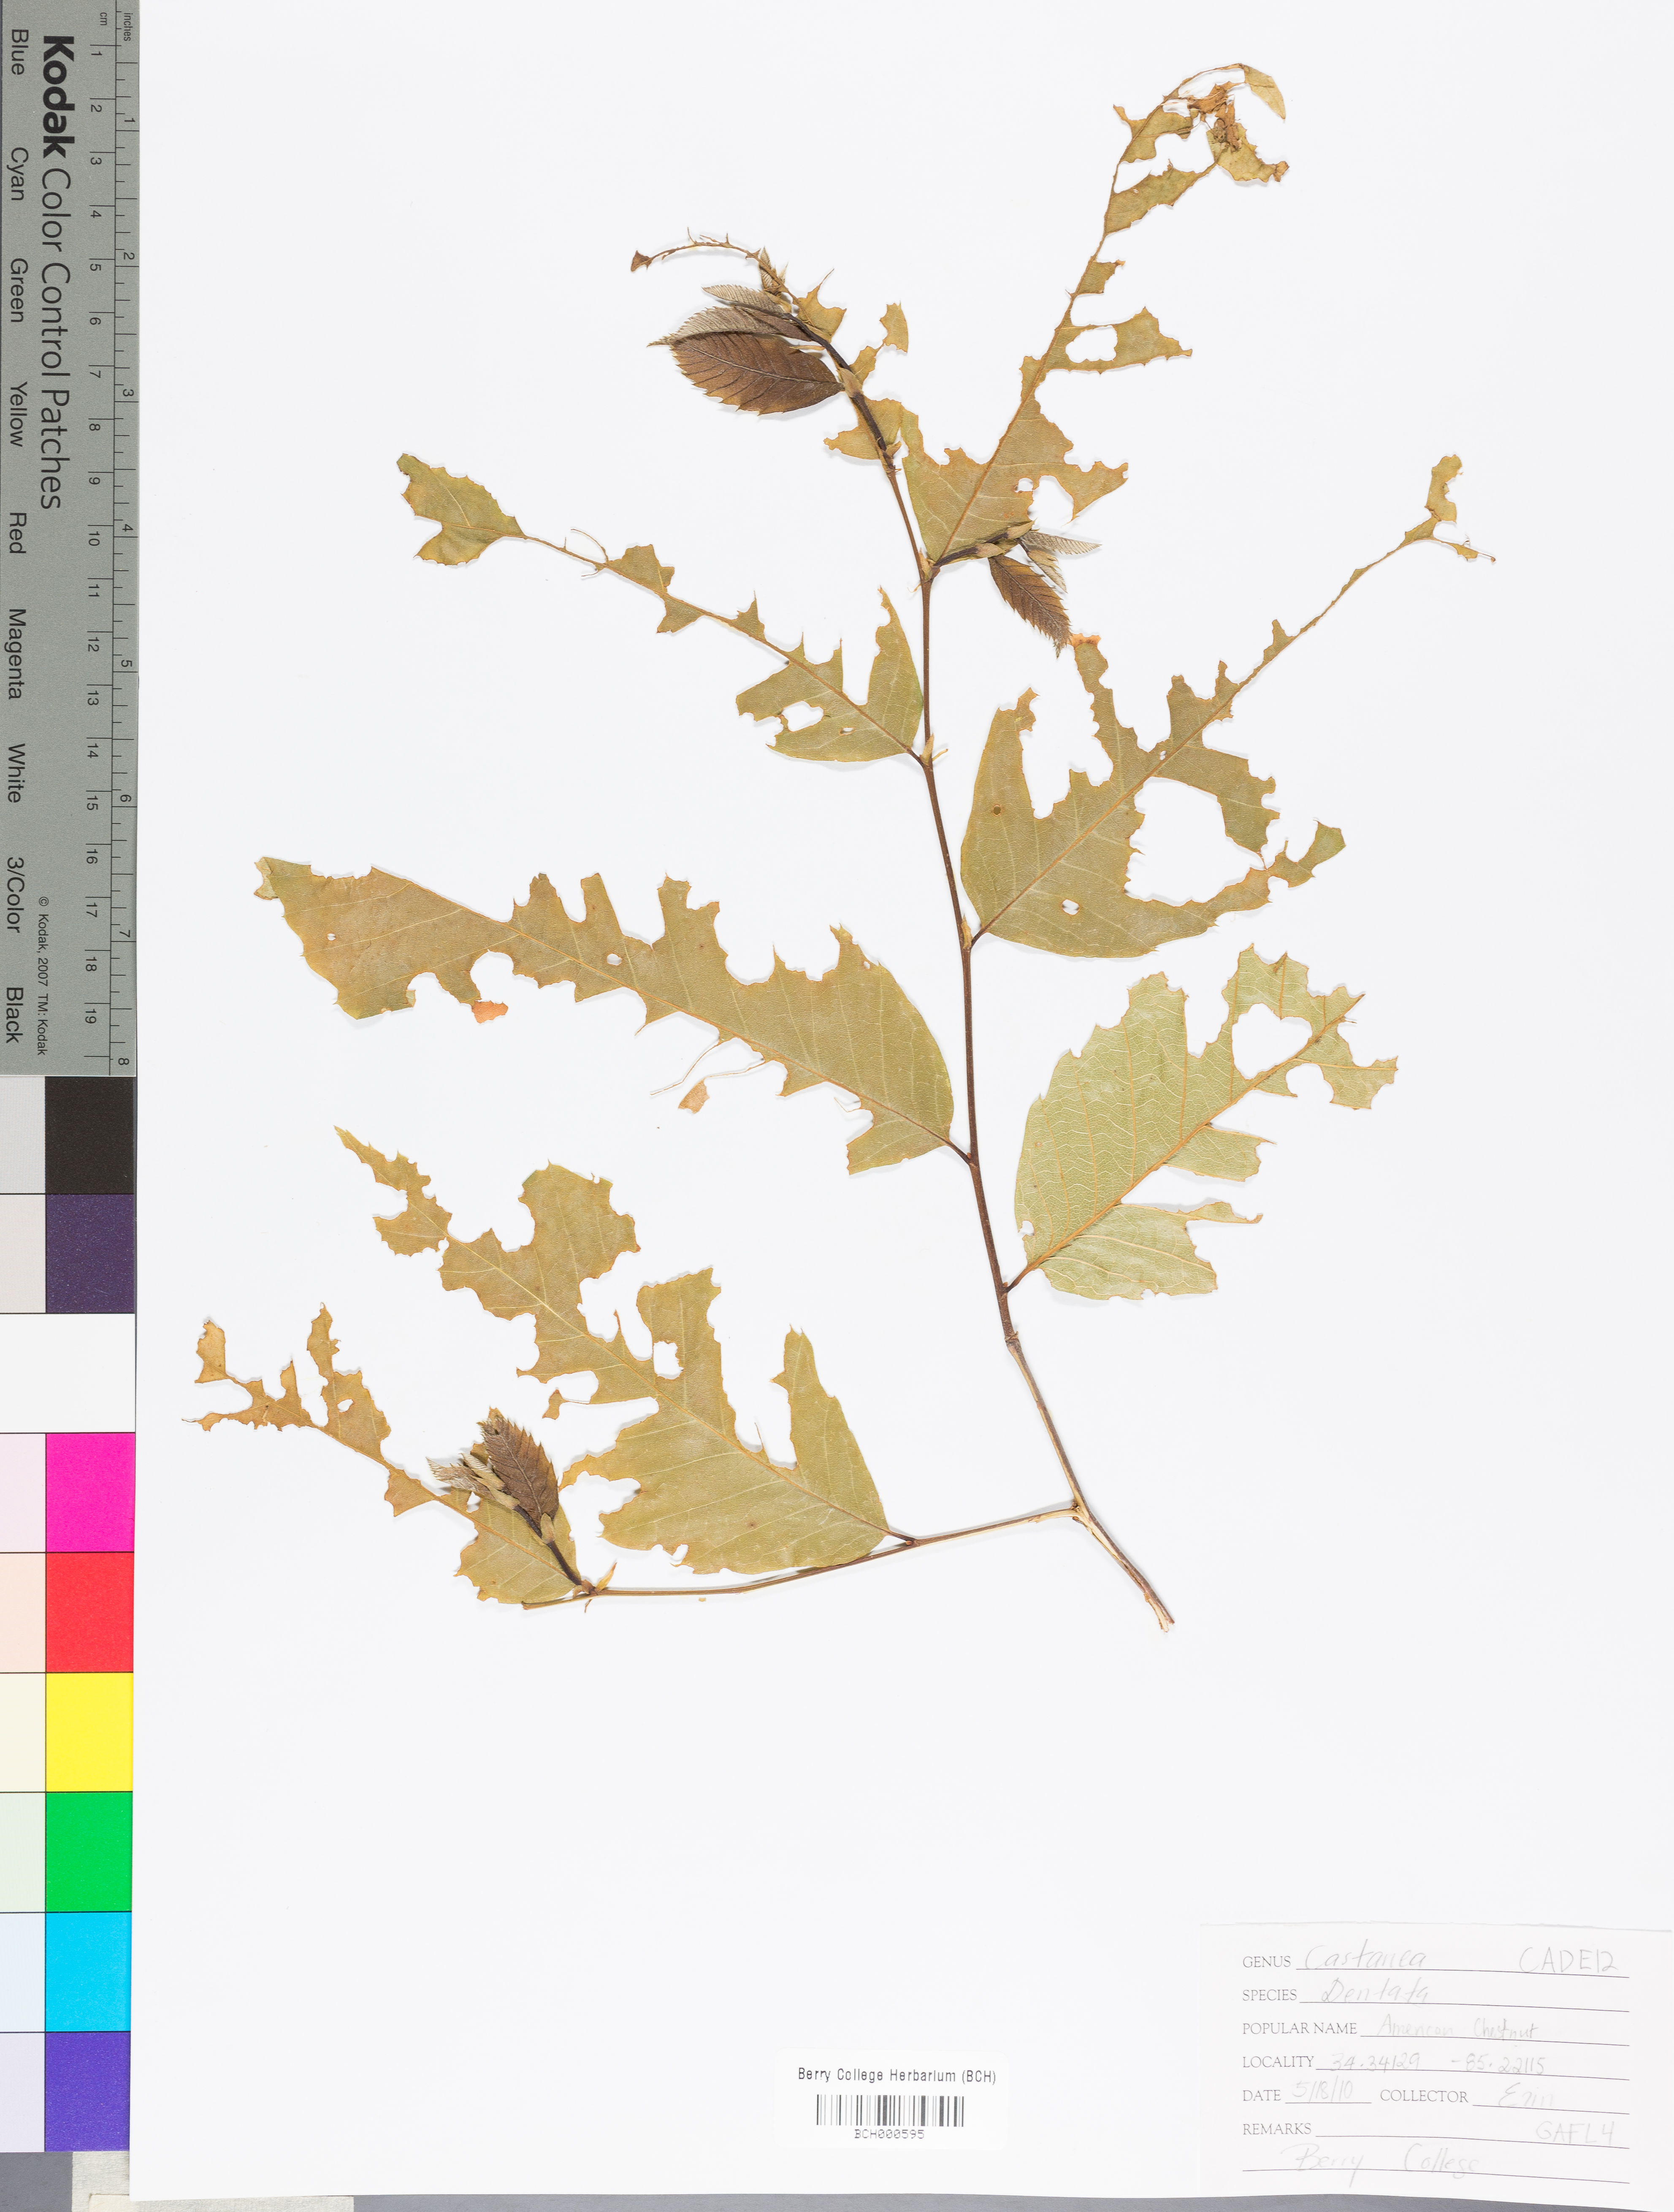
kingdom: Plantae
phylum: Tracheophyta
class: Magnoliopsida
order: Fagales
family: Fagaceae
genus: Castanea
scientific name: Castanea dentata
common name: American chestnut
